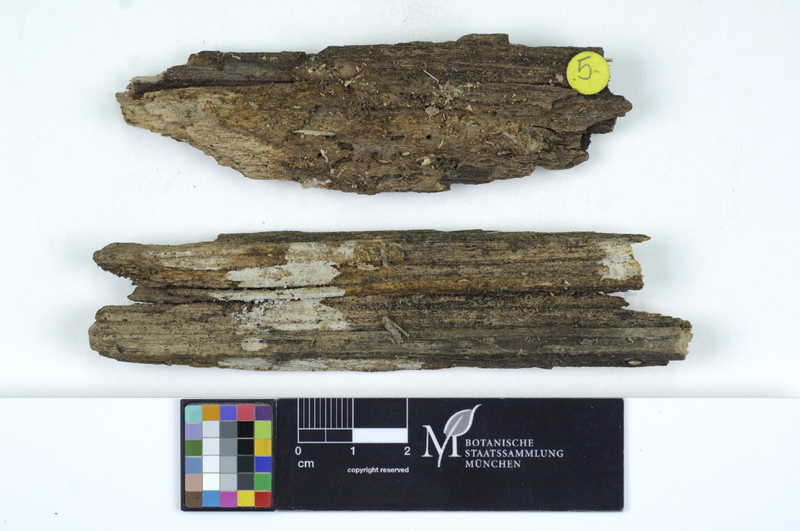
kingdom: Plantae
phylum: Tracheophyta
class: Magnoliopsida
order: Lamiales
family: Oleaceae
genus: Fraxinus
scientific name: Fraxinus
